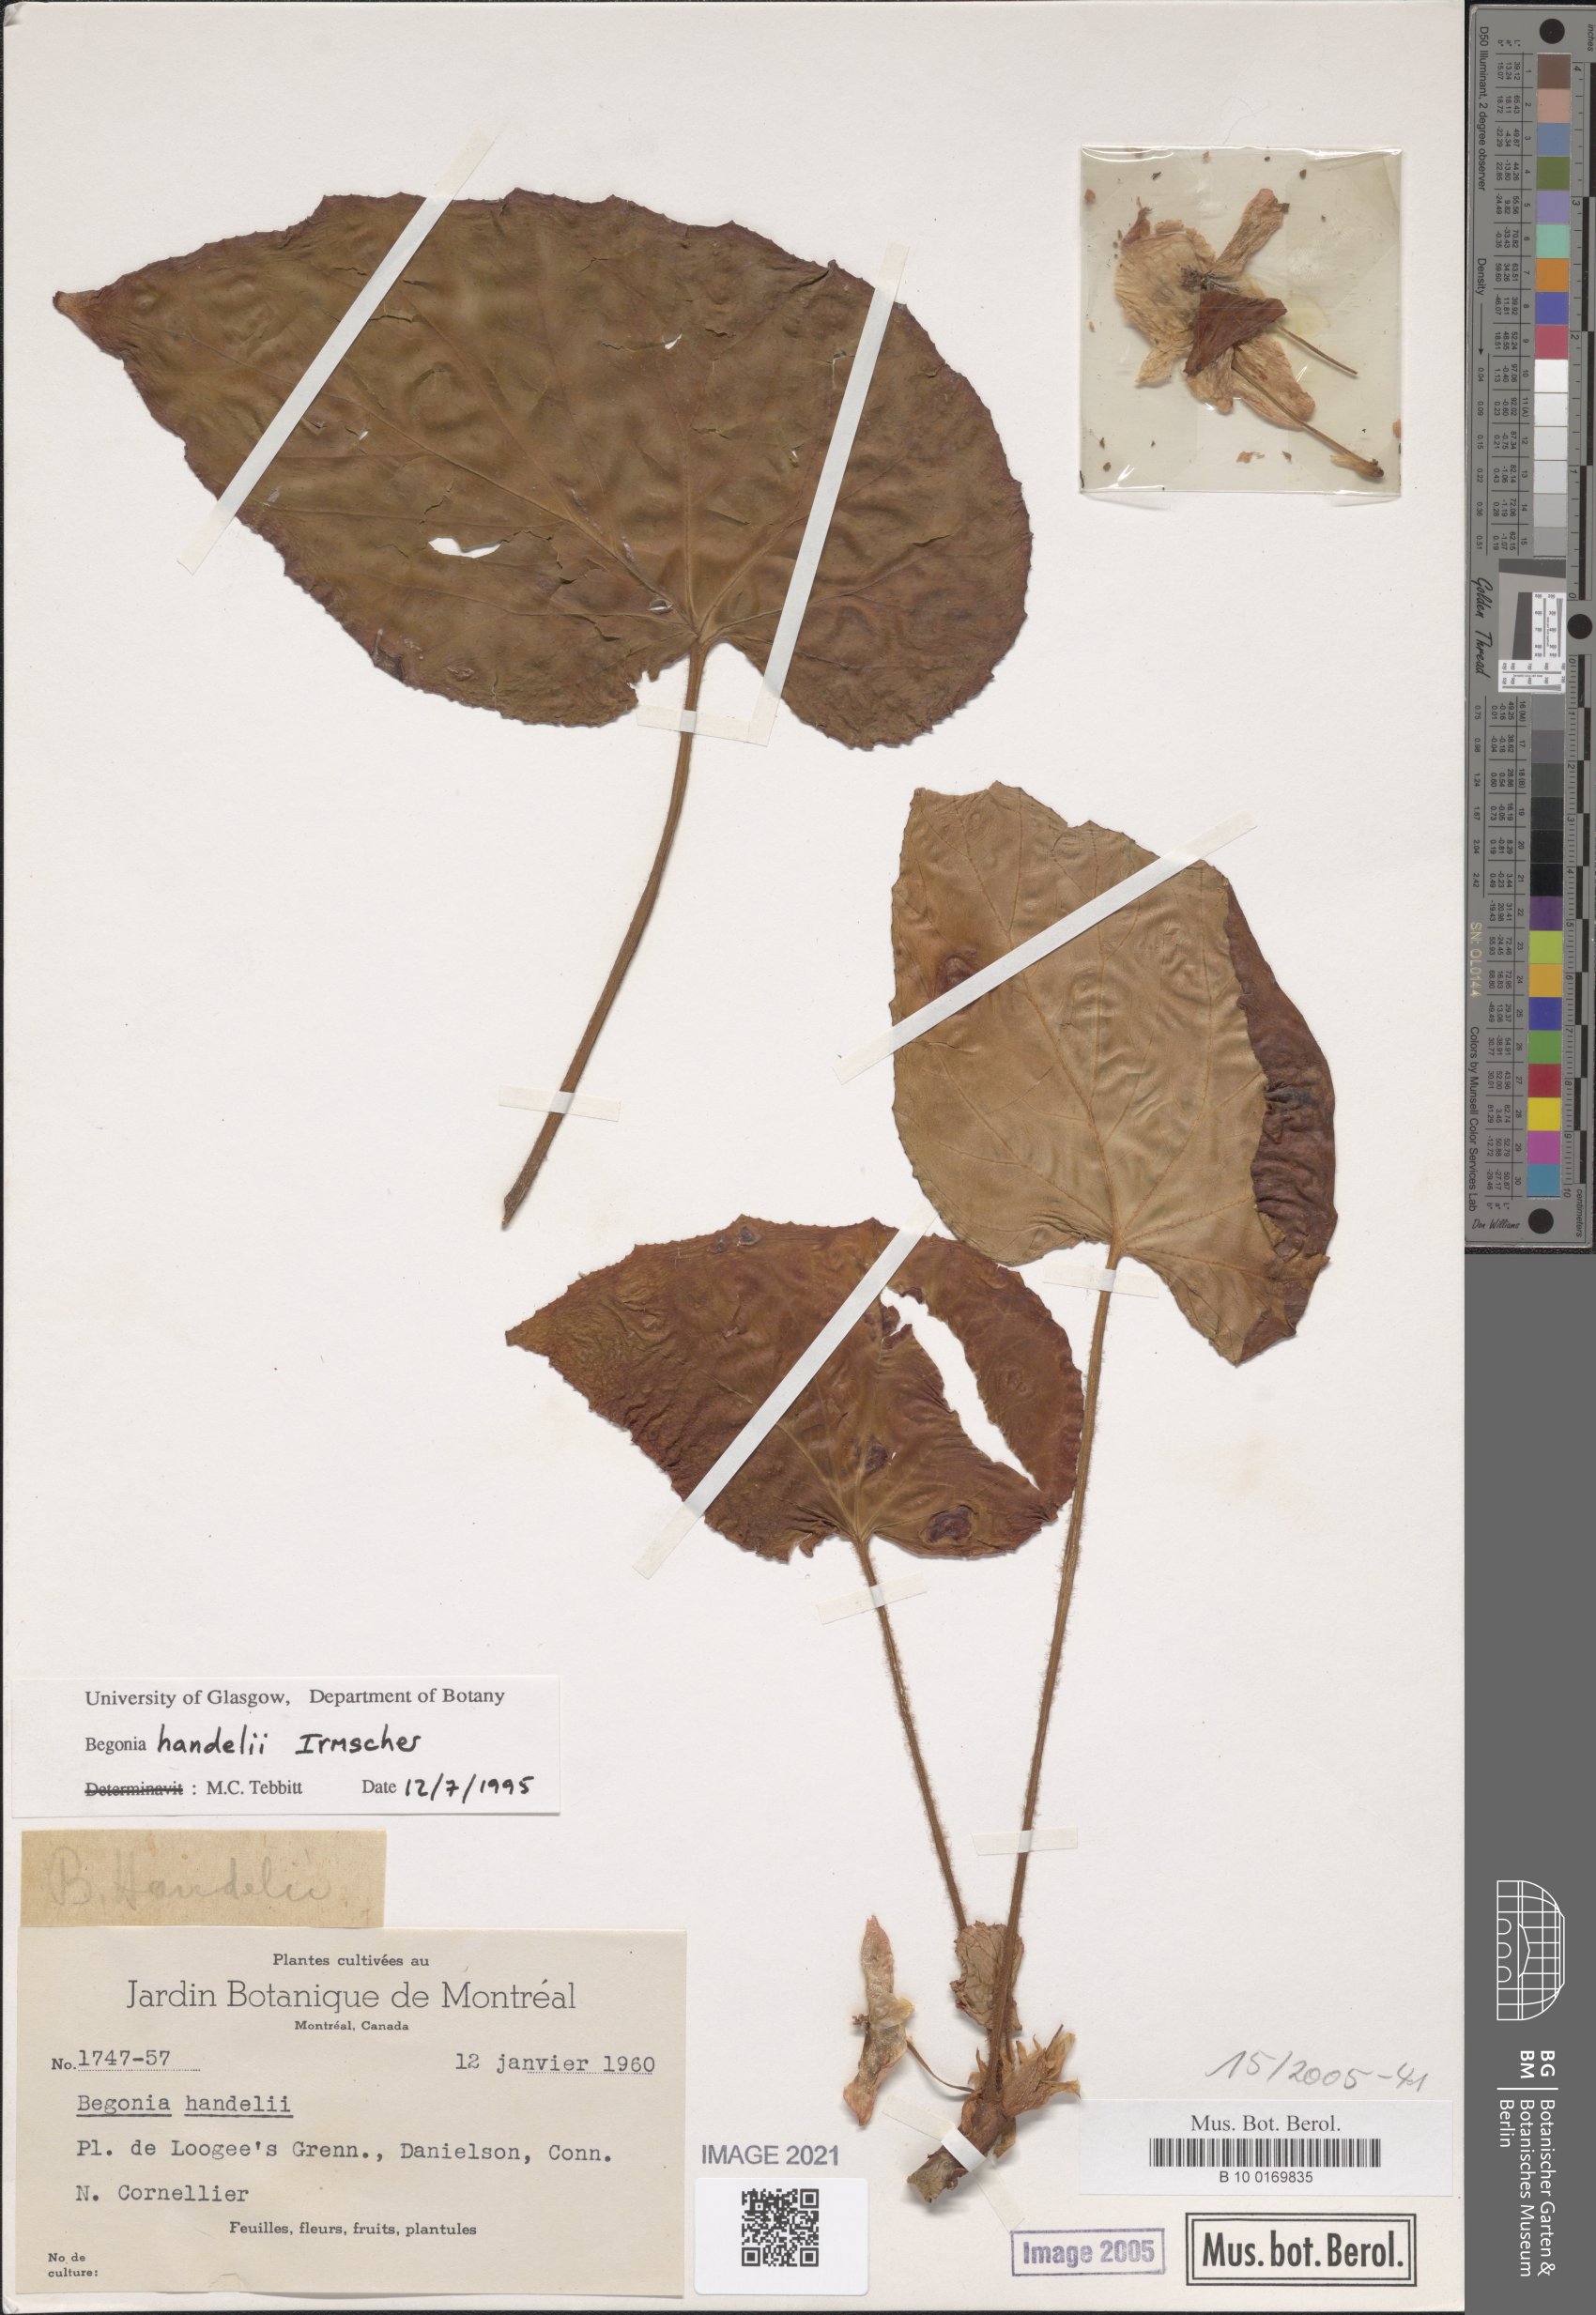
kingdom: Plantae
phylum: Tracheophyta
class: Magnoliopsida
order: Cucurbitales
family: Begoniaceae
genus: Begonia
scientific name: Begonia handelii
